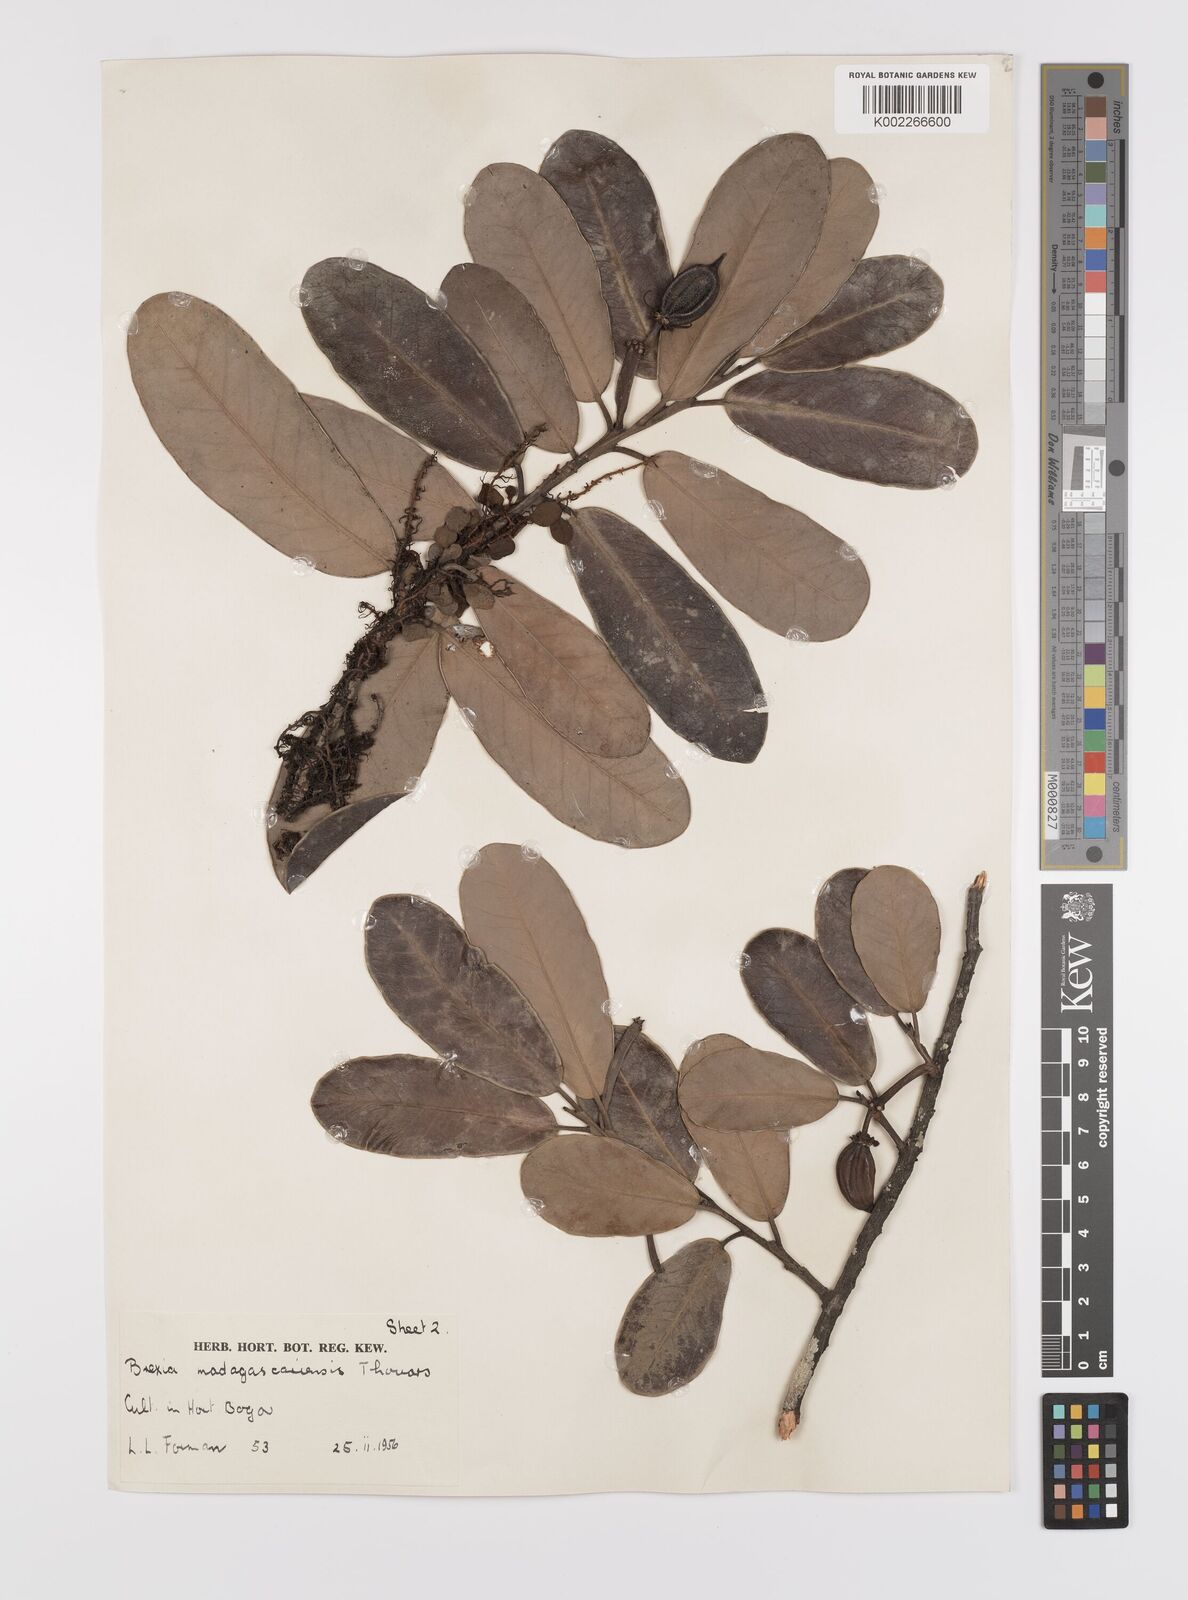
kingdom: Plantae
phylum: Tracheophyta
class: Magnoliopsida
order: Celastrales
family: Celastraceae
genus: Brexia
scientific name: Brexia madagascariensis
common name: Brexia
